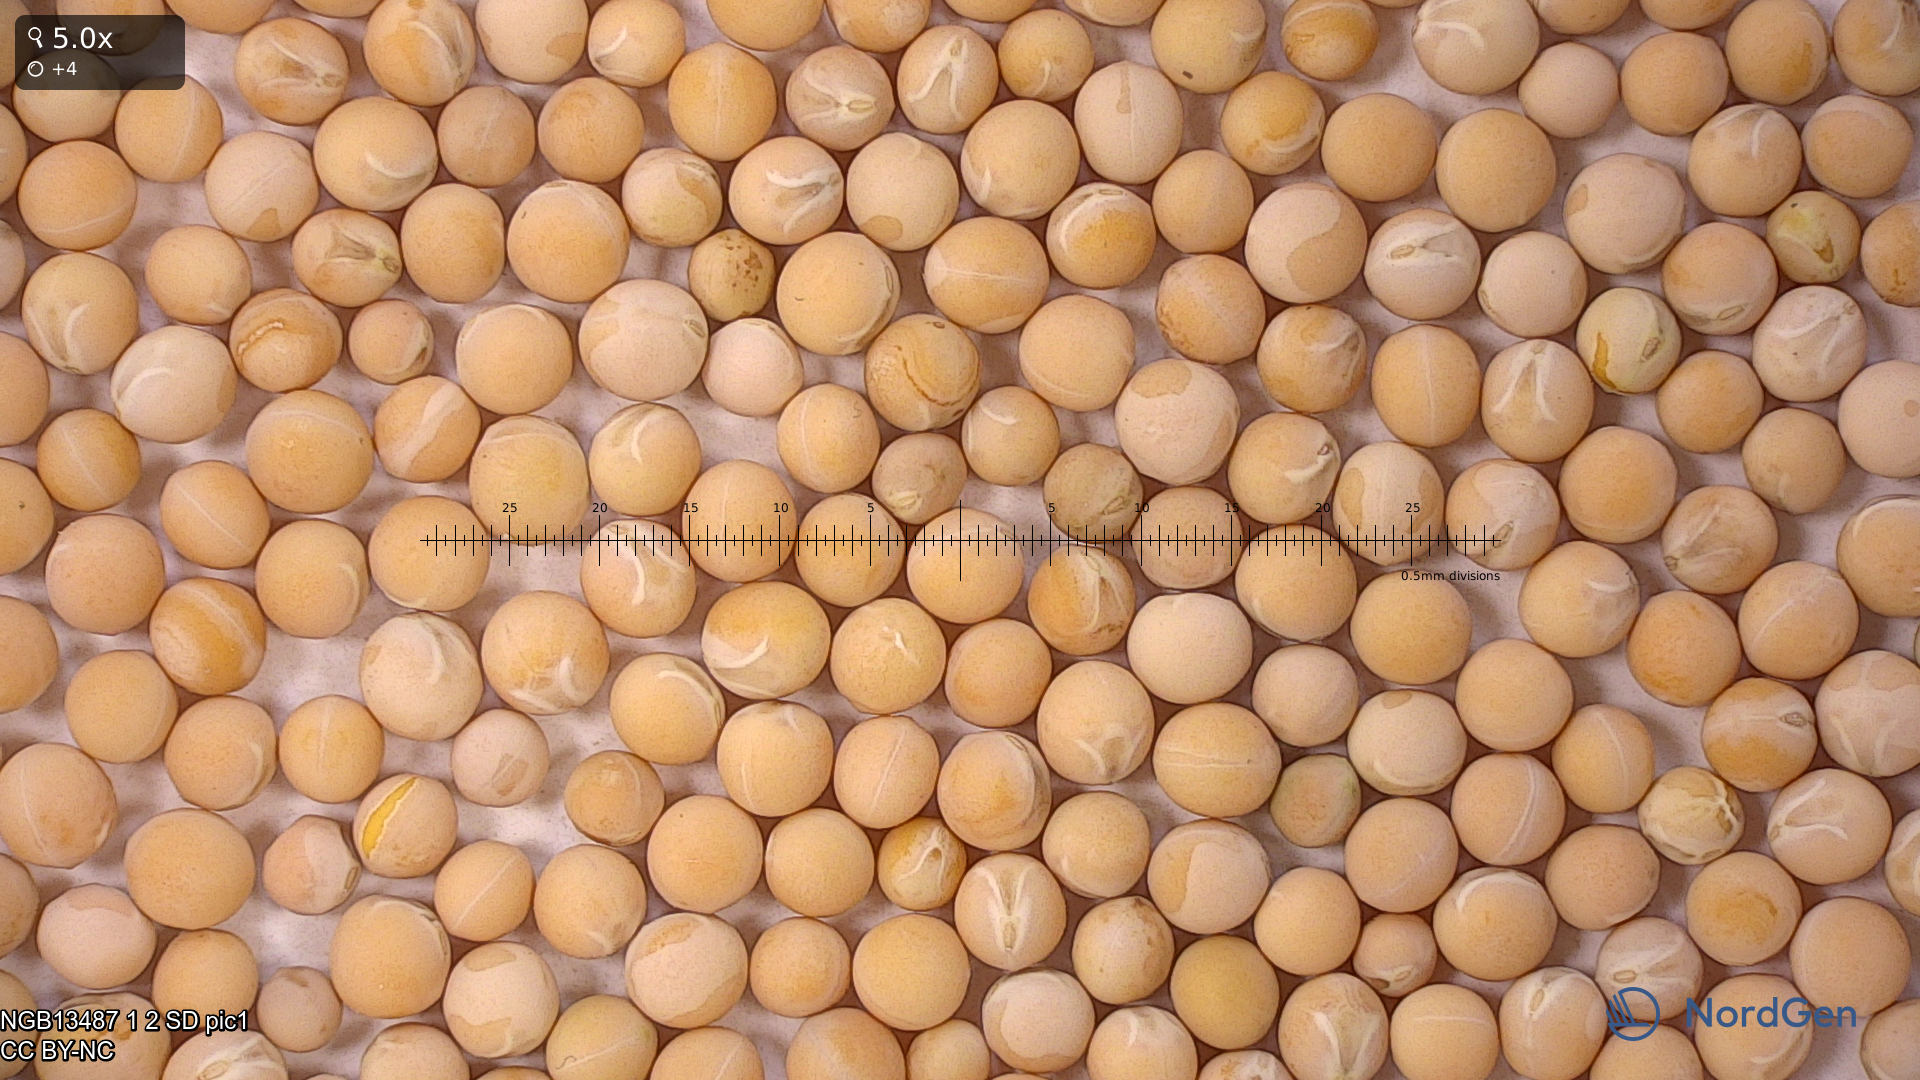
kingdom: Plantae
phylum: Tracheophyta
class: Magnoliopsida
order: Fabales
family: Fabaceae
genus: Lathyrus
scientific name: Lathyrus oleraceus
